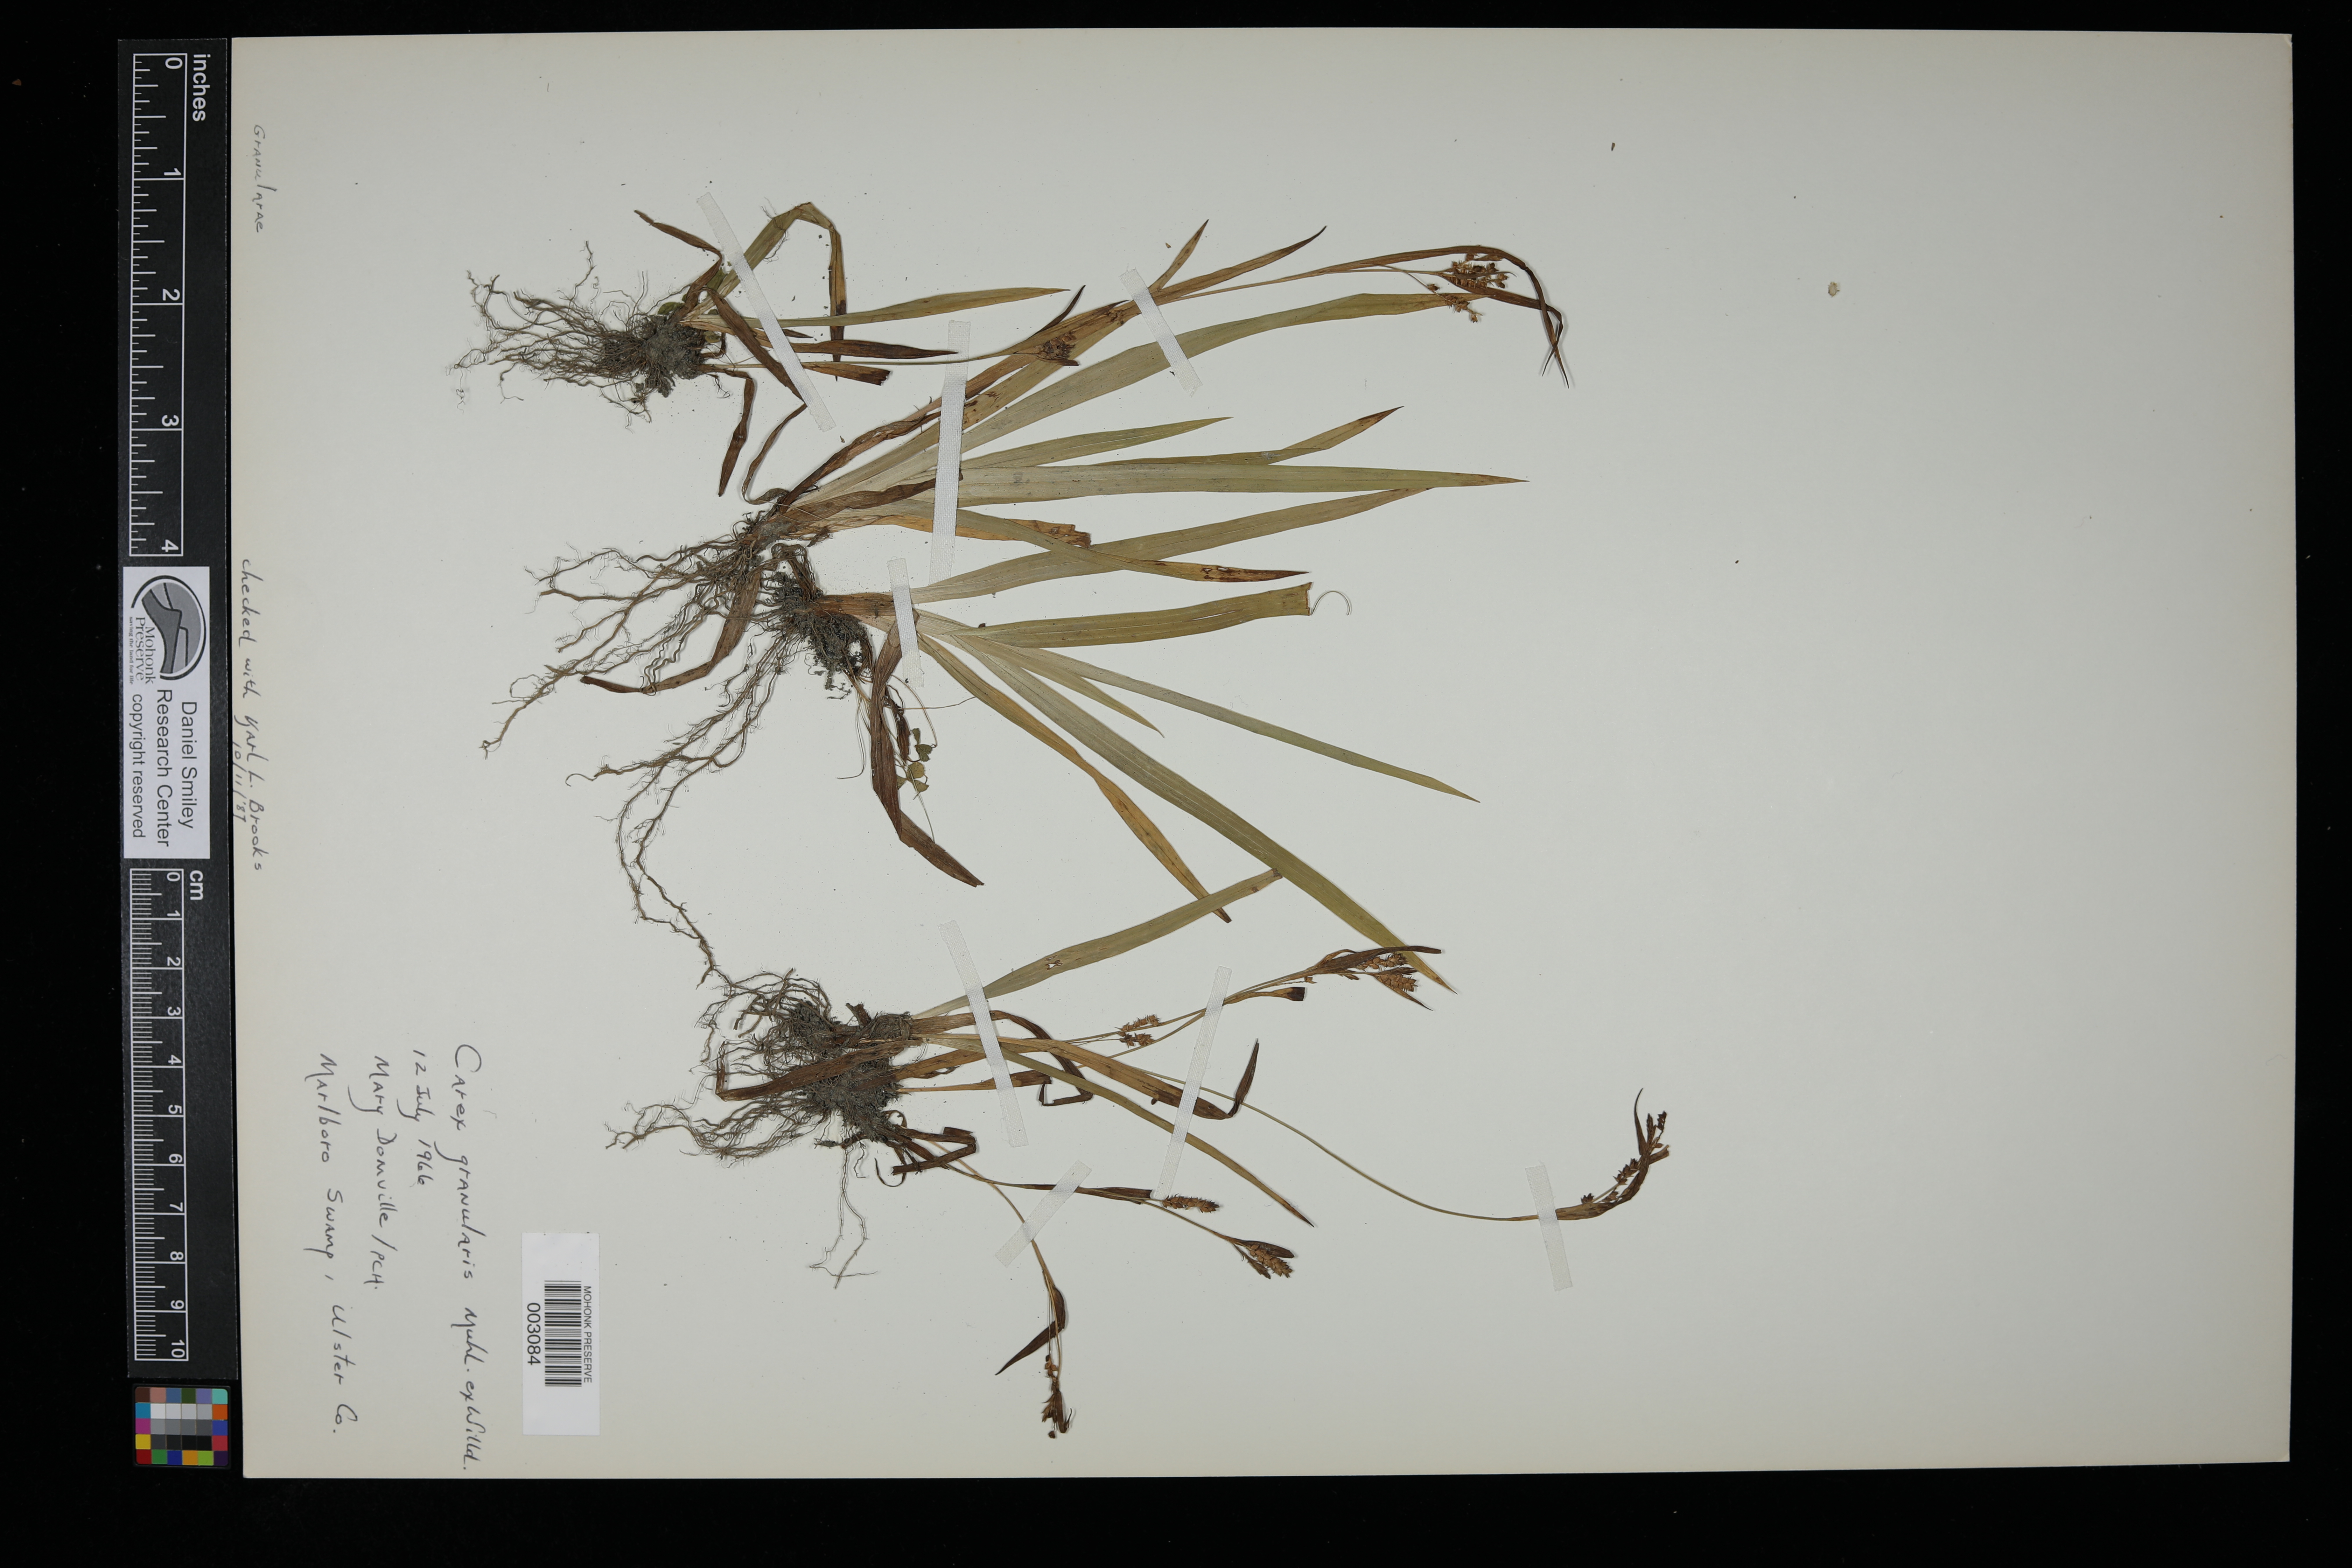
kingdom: Plantae
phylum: Tracheophyta
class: Liliopsida
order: Poales
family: Cyperaceae
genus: Carex
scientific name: Carex granularis
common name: Granular sedge
